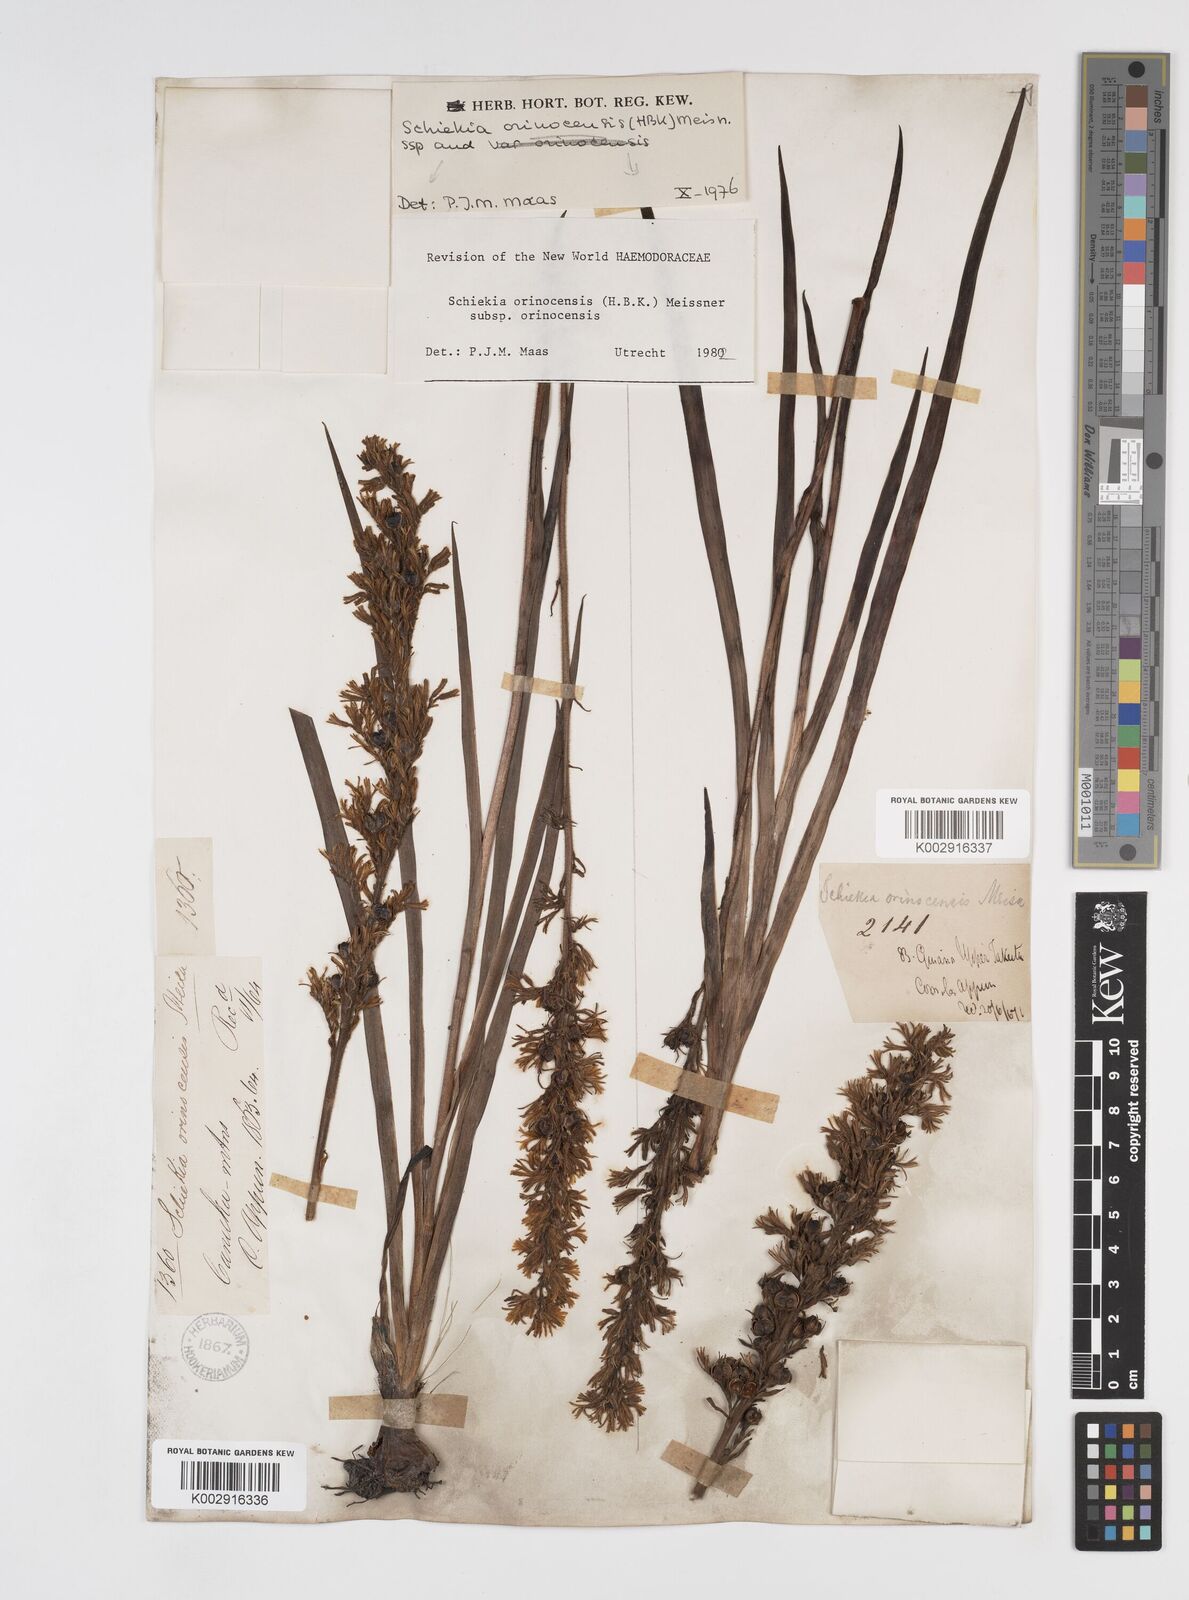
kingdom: Plantae
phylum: Tracheophyta
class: Liliopsida
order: Commelinales
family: Haemodoraceae
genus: Schiekia
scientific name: Schiekia orinocensis
